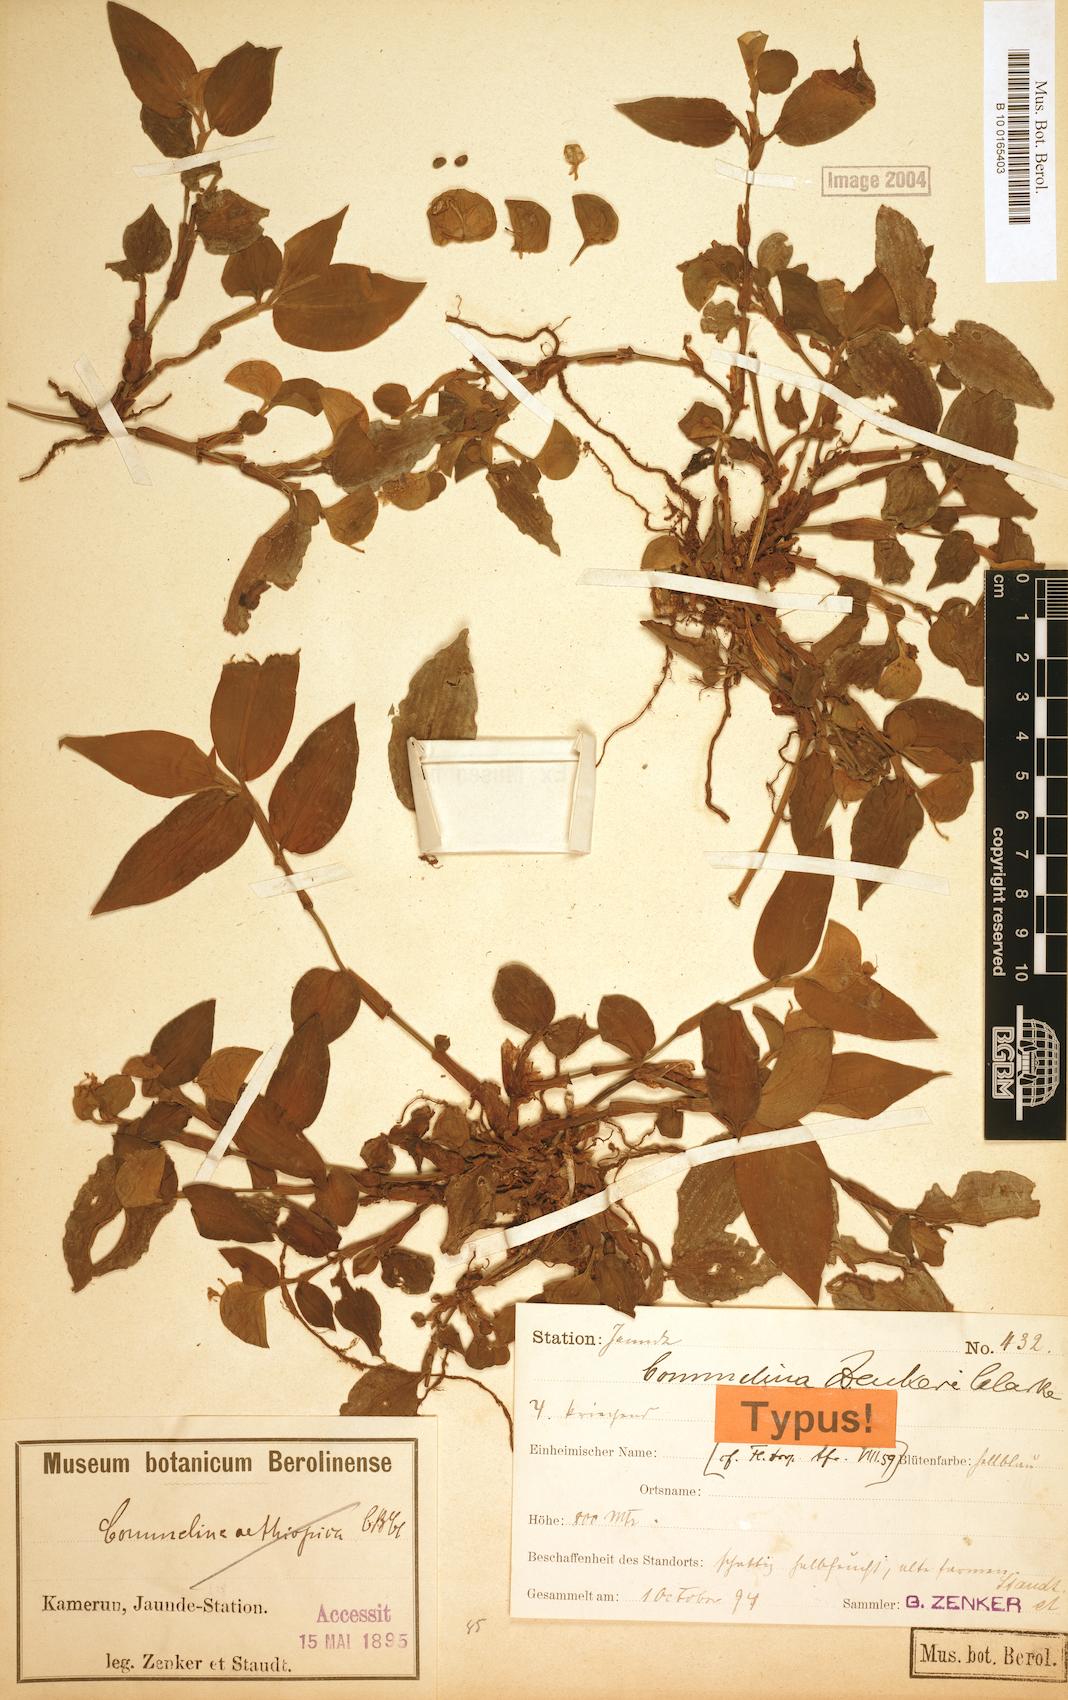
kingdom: Plantae
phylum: Tracheophyta
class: Liliopsida
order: Commelinales
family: Commelinaceae
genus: Commelina
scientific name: Commelina zenkeri
